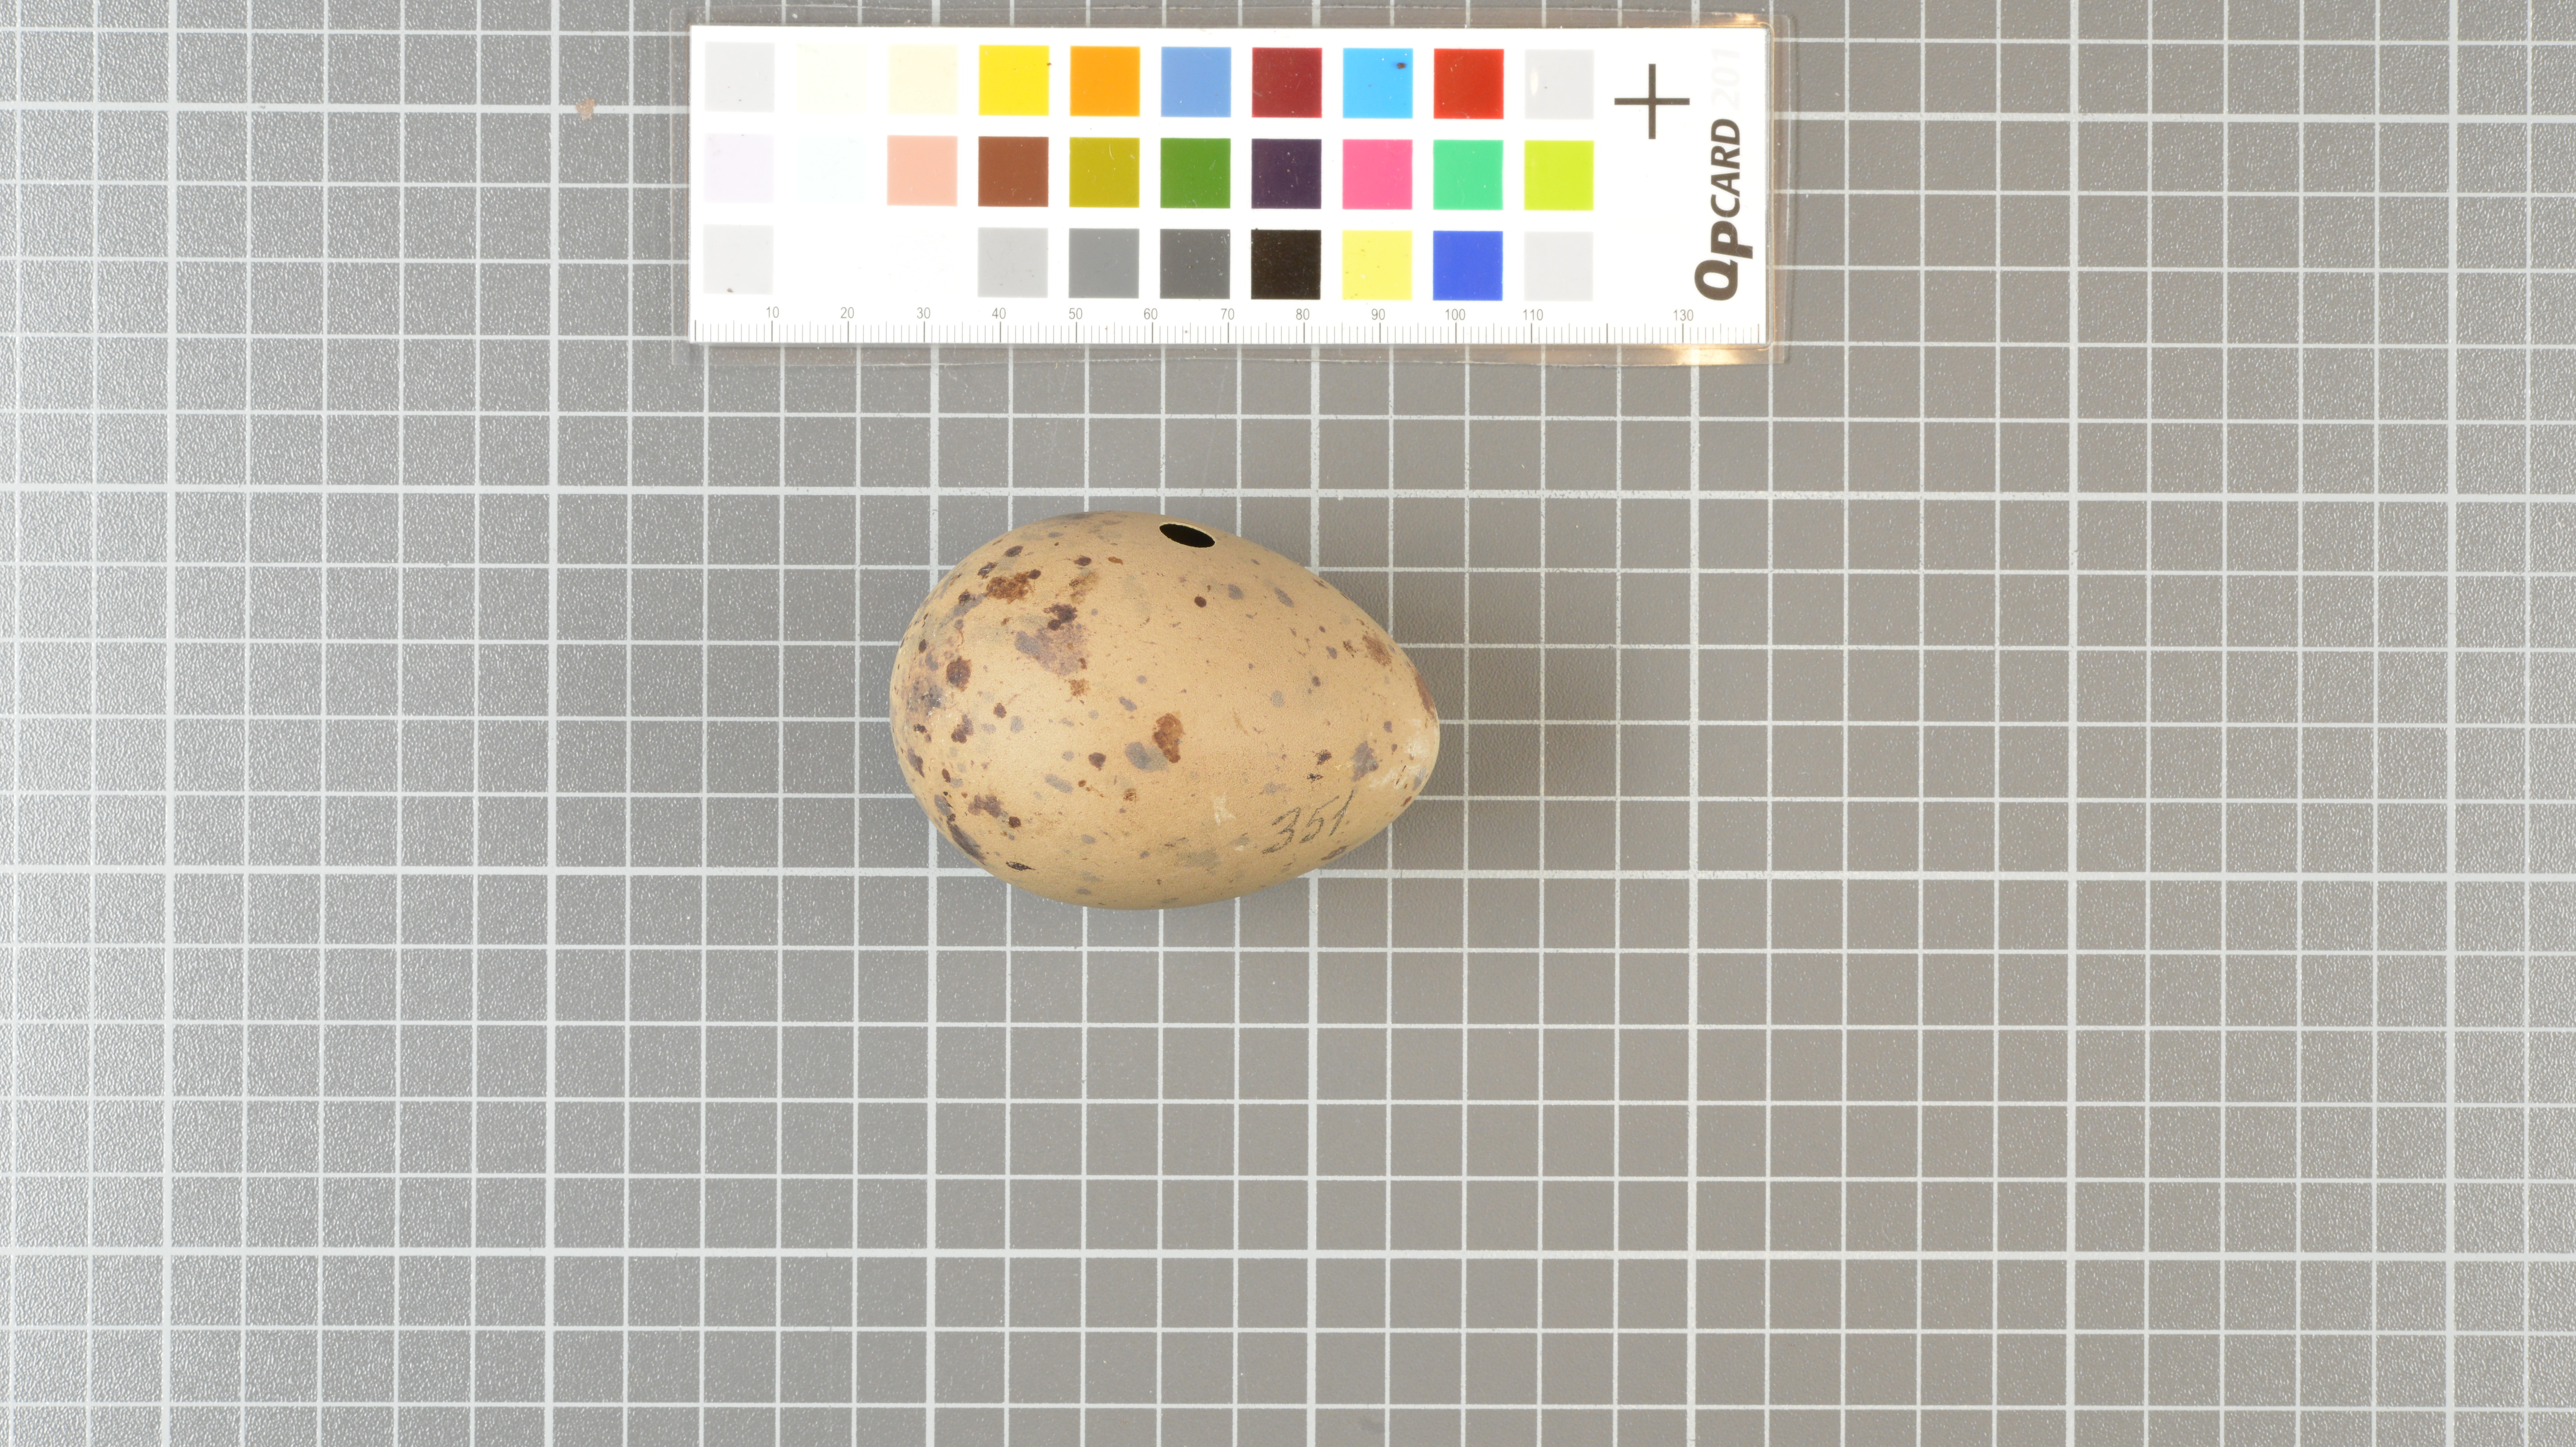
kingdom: Animalia
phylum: Chordata
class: Aves
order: Charadriiformes
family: Stercorariidae
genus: Stercorarius
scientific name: Stercorarius antarcticus
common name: Brown skua
